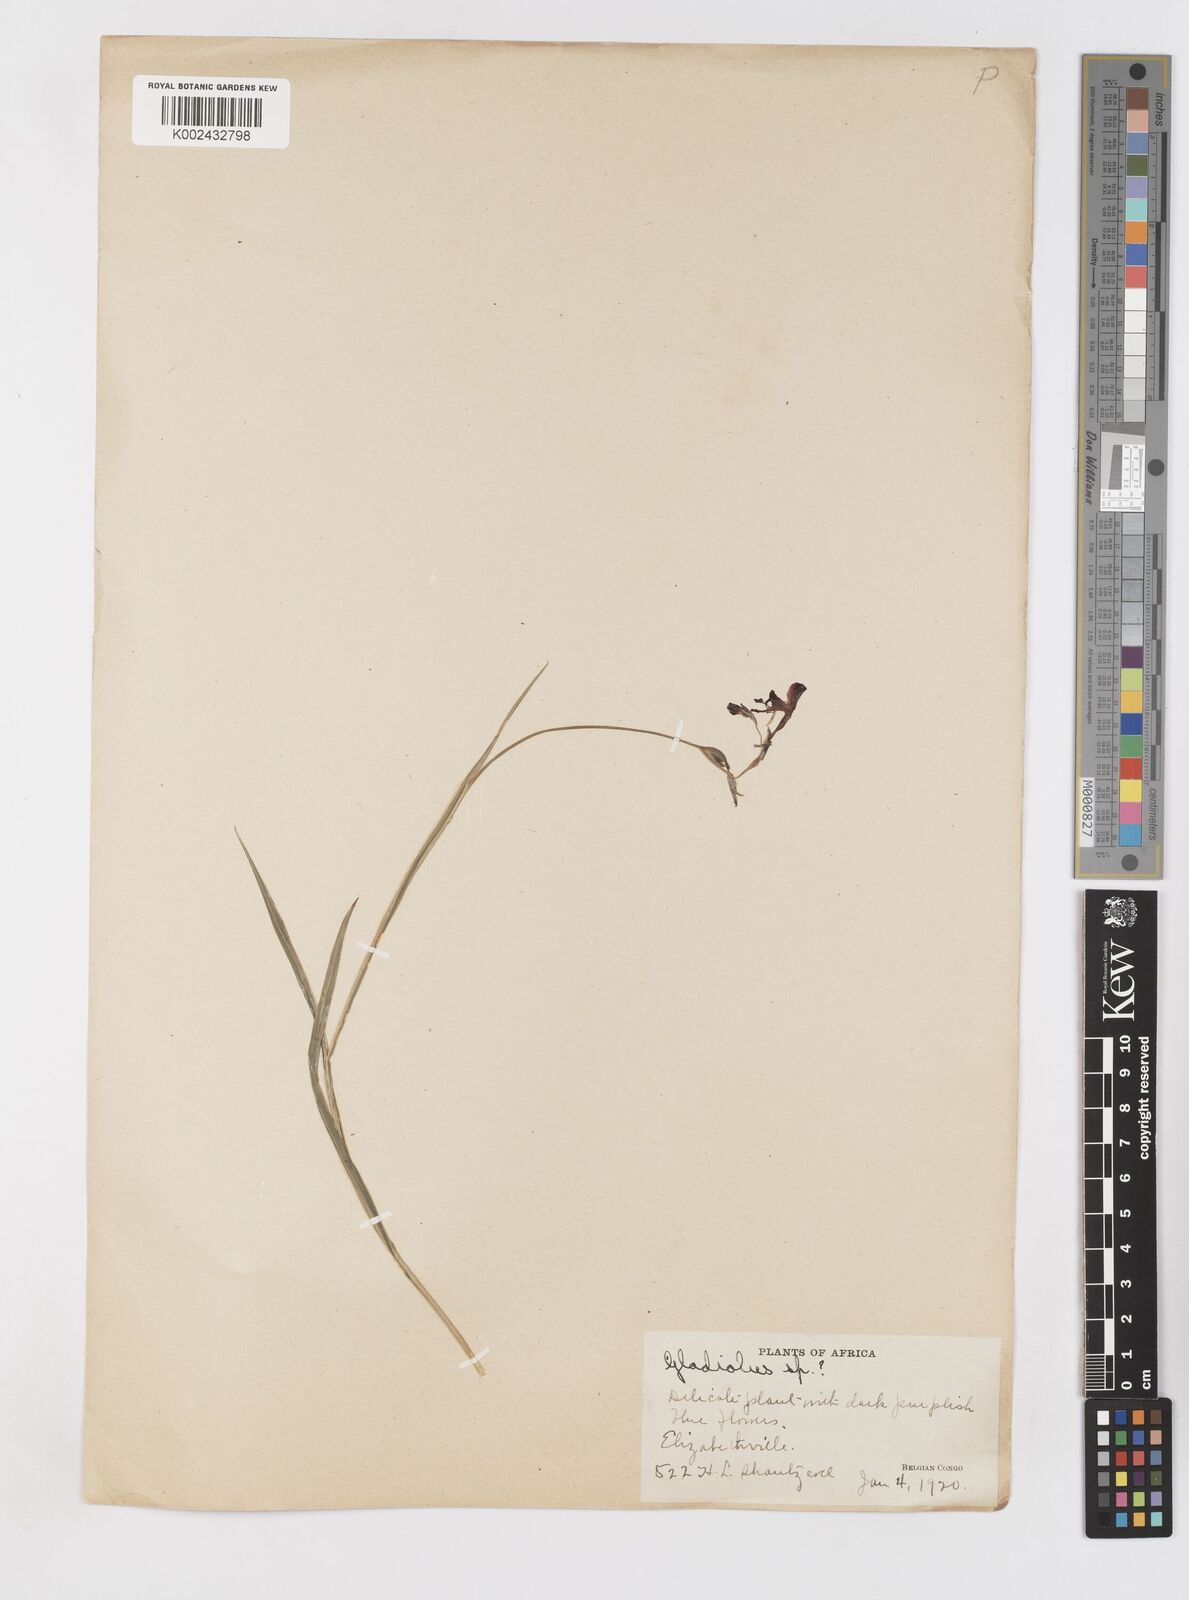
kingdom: Plantae
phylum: Tracheophyta
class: Liliopsida
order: Asparagales
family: Iridaceae
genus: Gladiolus
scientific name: Gladiolus atropurpureus
